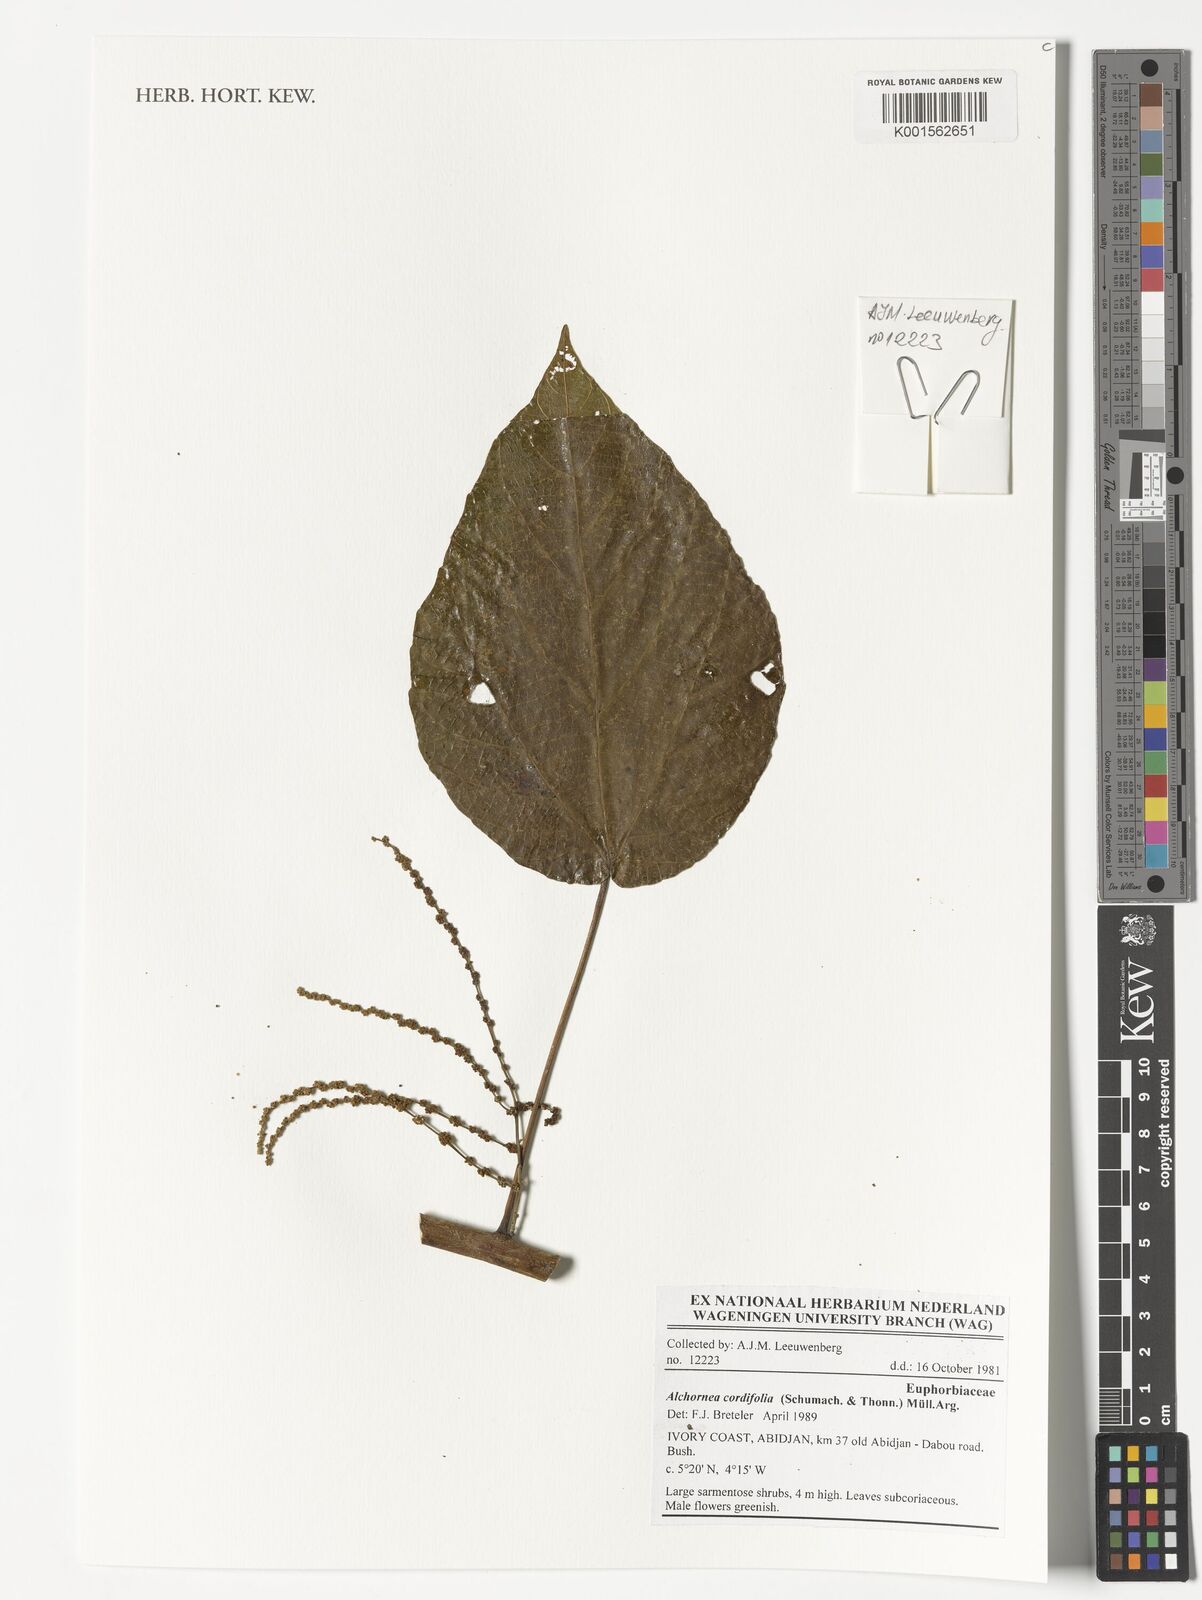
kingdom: Plantae
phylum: Tracheophyta
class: Magnoliopsida
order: Malpighiales
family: Euphorbiaceae
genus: Alchornea
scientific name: Alchornea cordifolia
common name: Christmasbush
